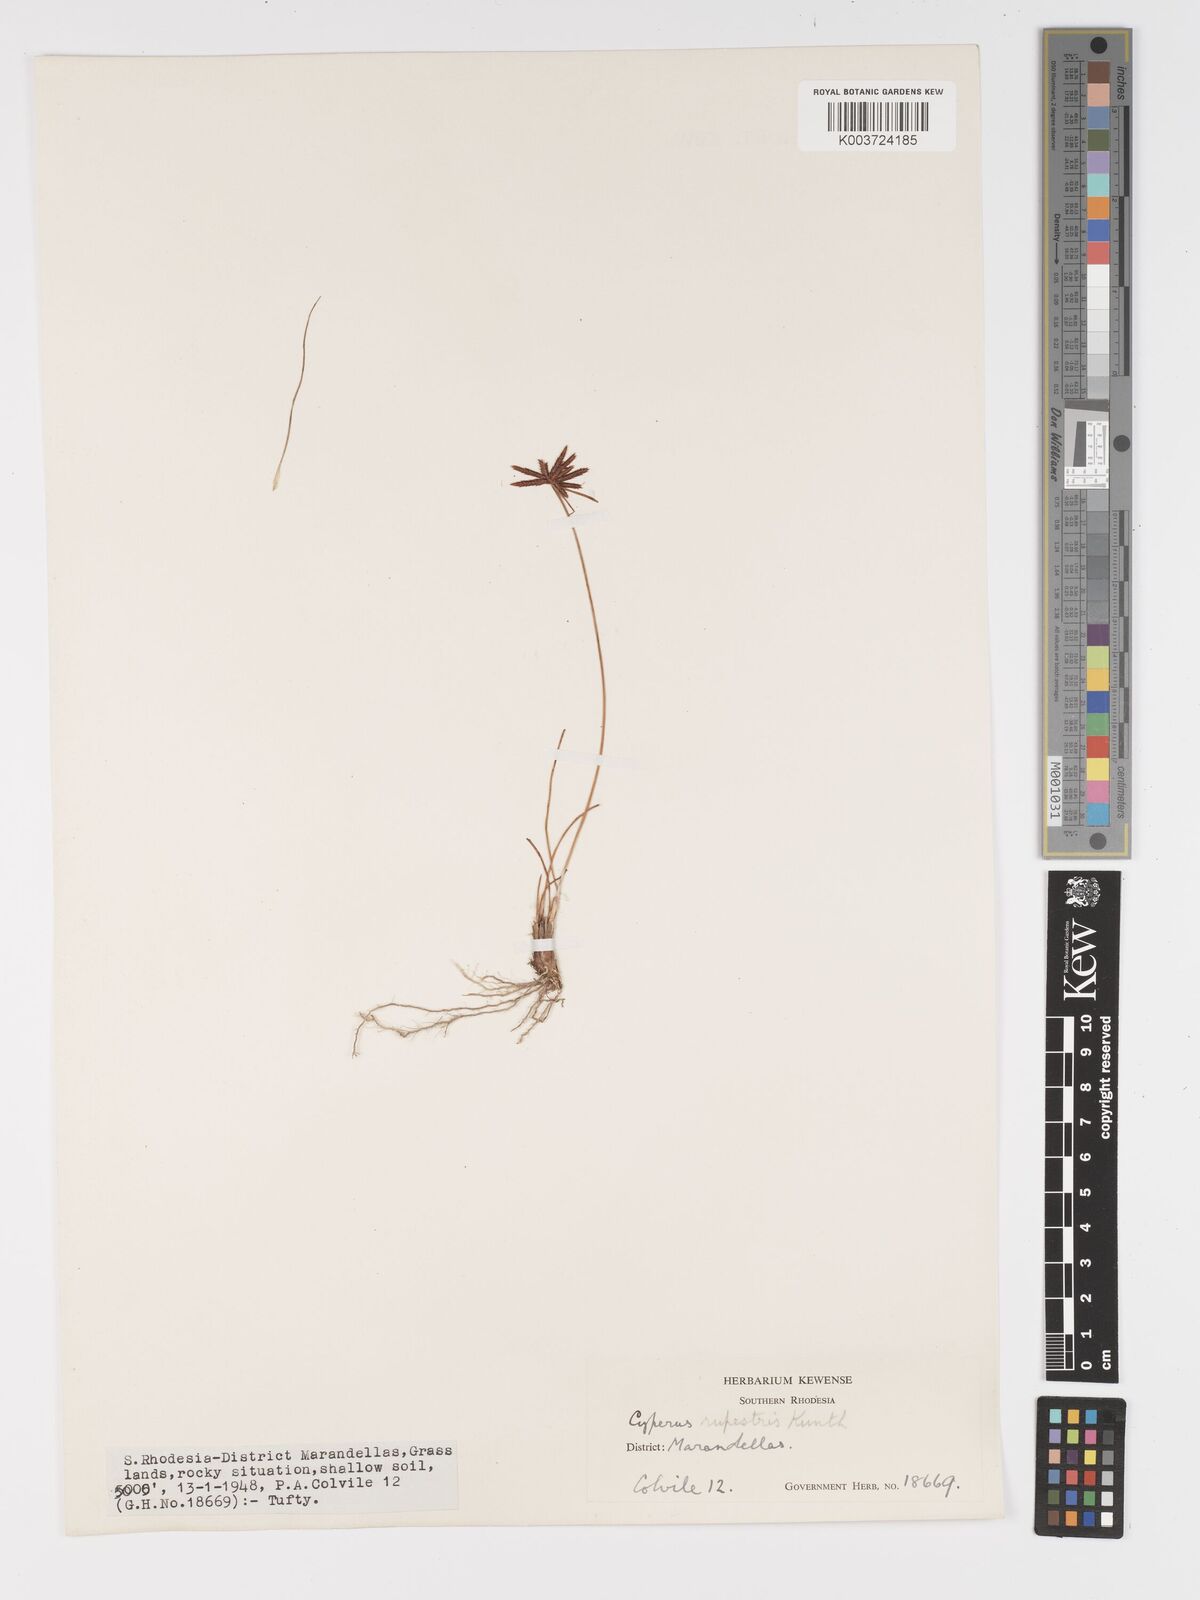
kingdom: Plantae
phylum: Tracheophyta
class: Liliopsida
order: Poales
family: Cyperaceae
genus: Cyperus
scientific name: Cyperus rupestris
